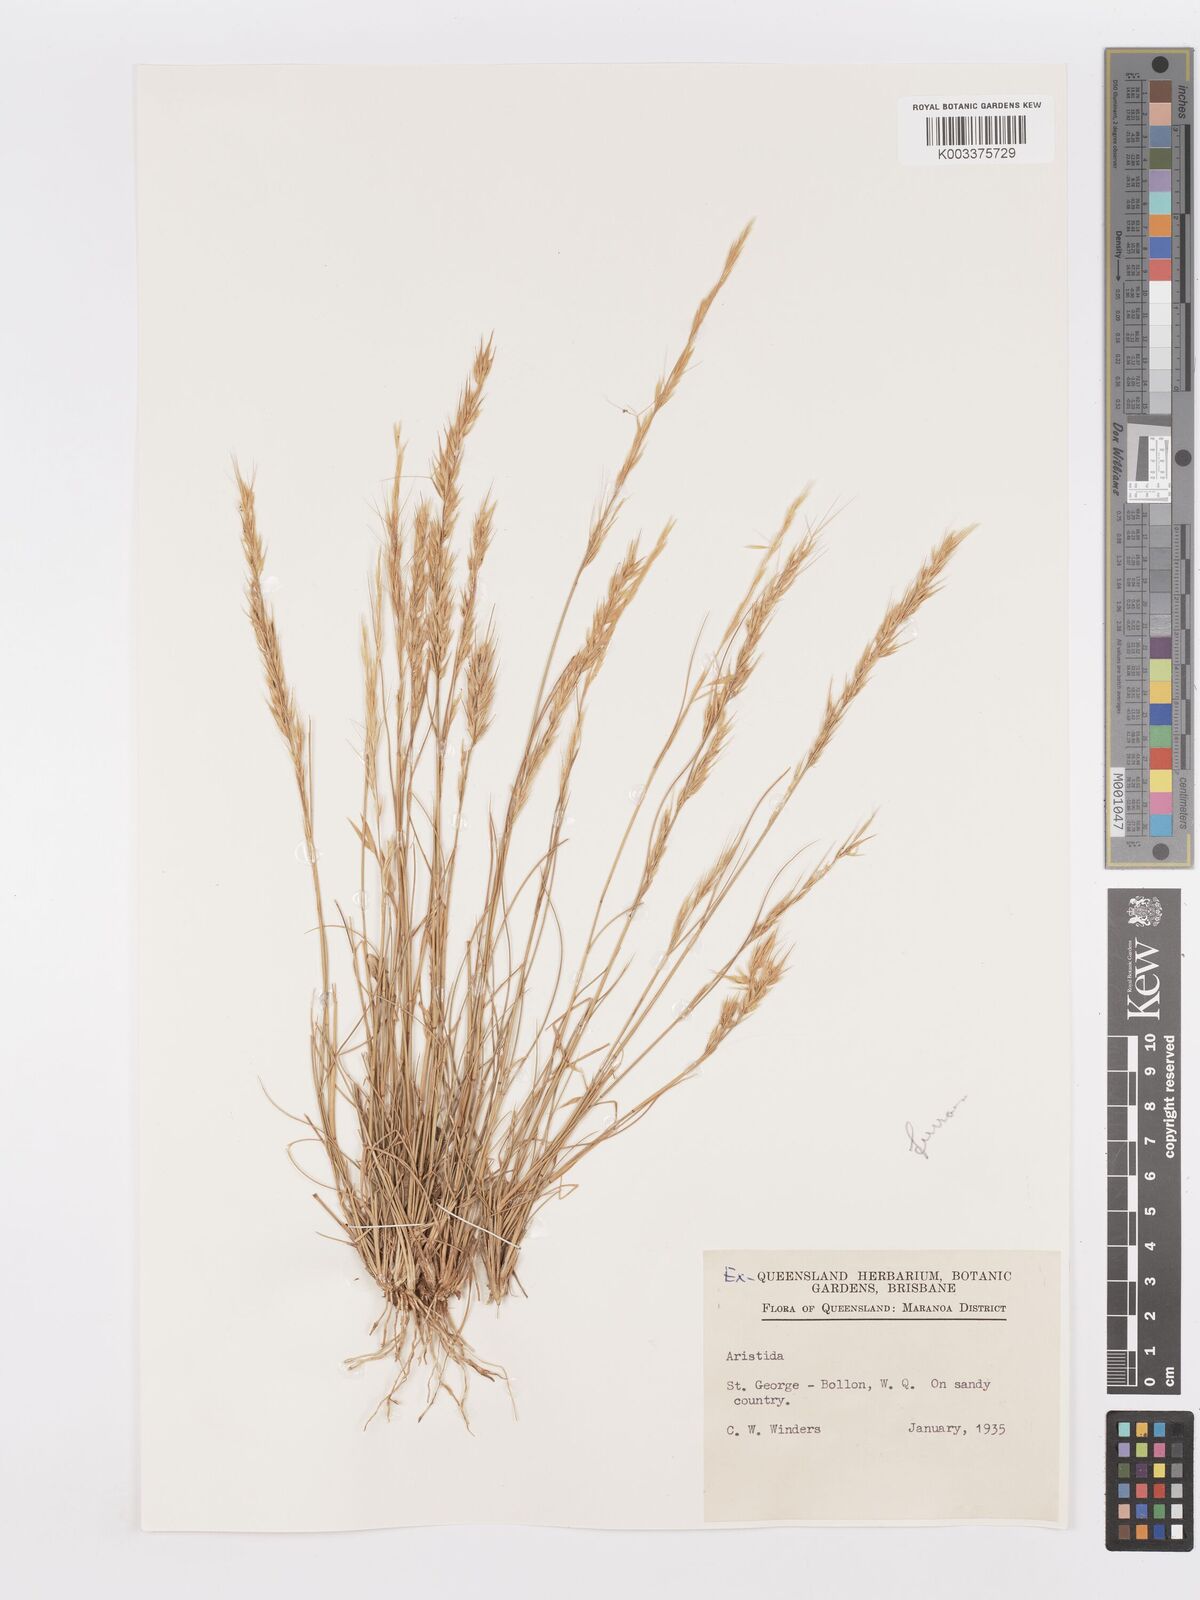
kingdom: Plantae
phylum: Tracheophyta
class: Liliopsida
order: Poales
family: Poaceae
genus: Aristida
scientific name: Aristida
